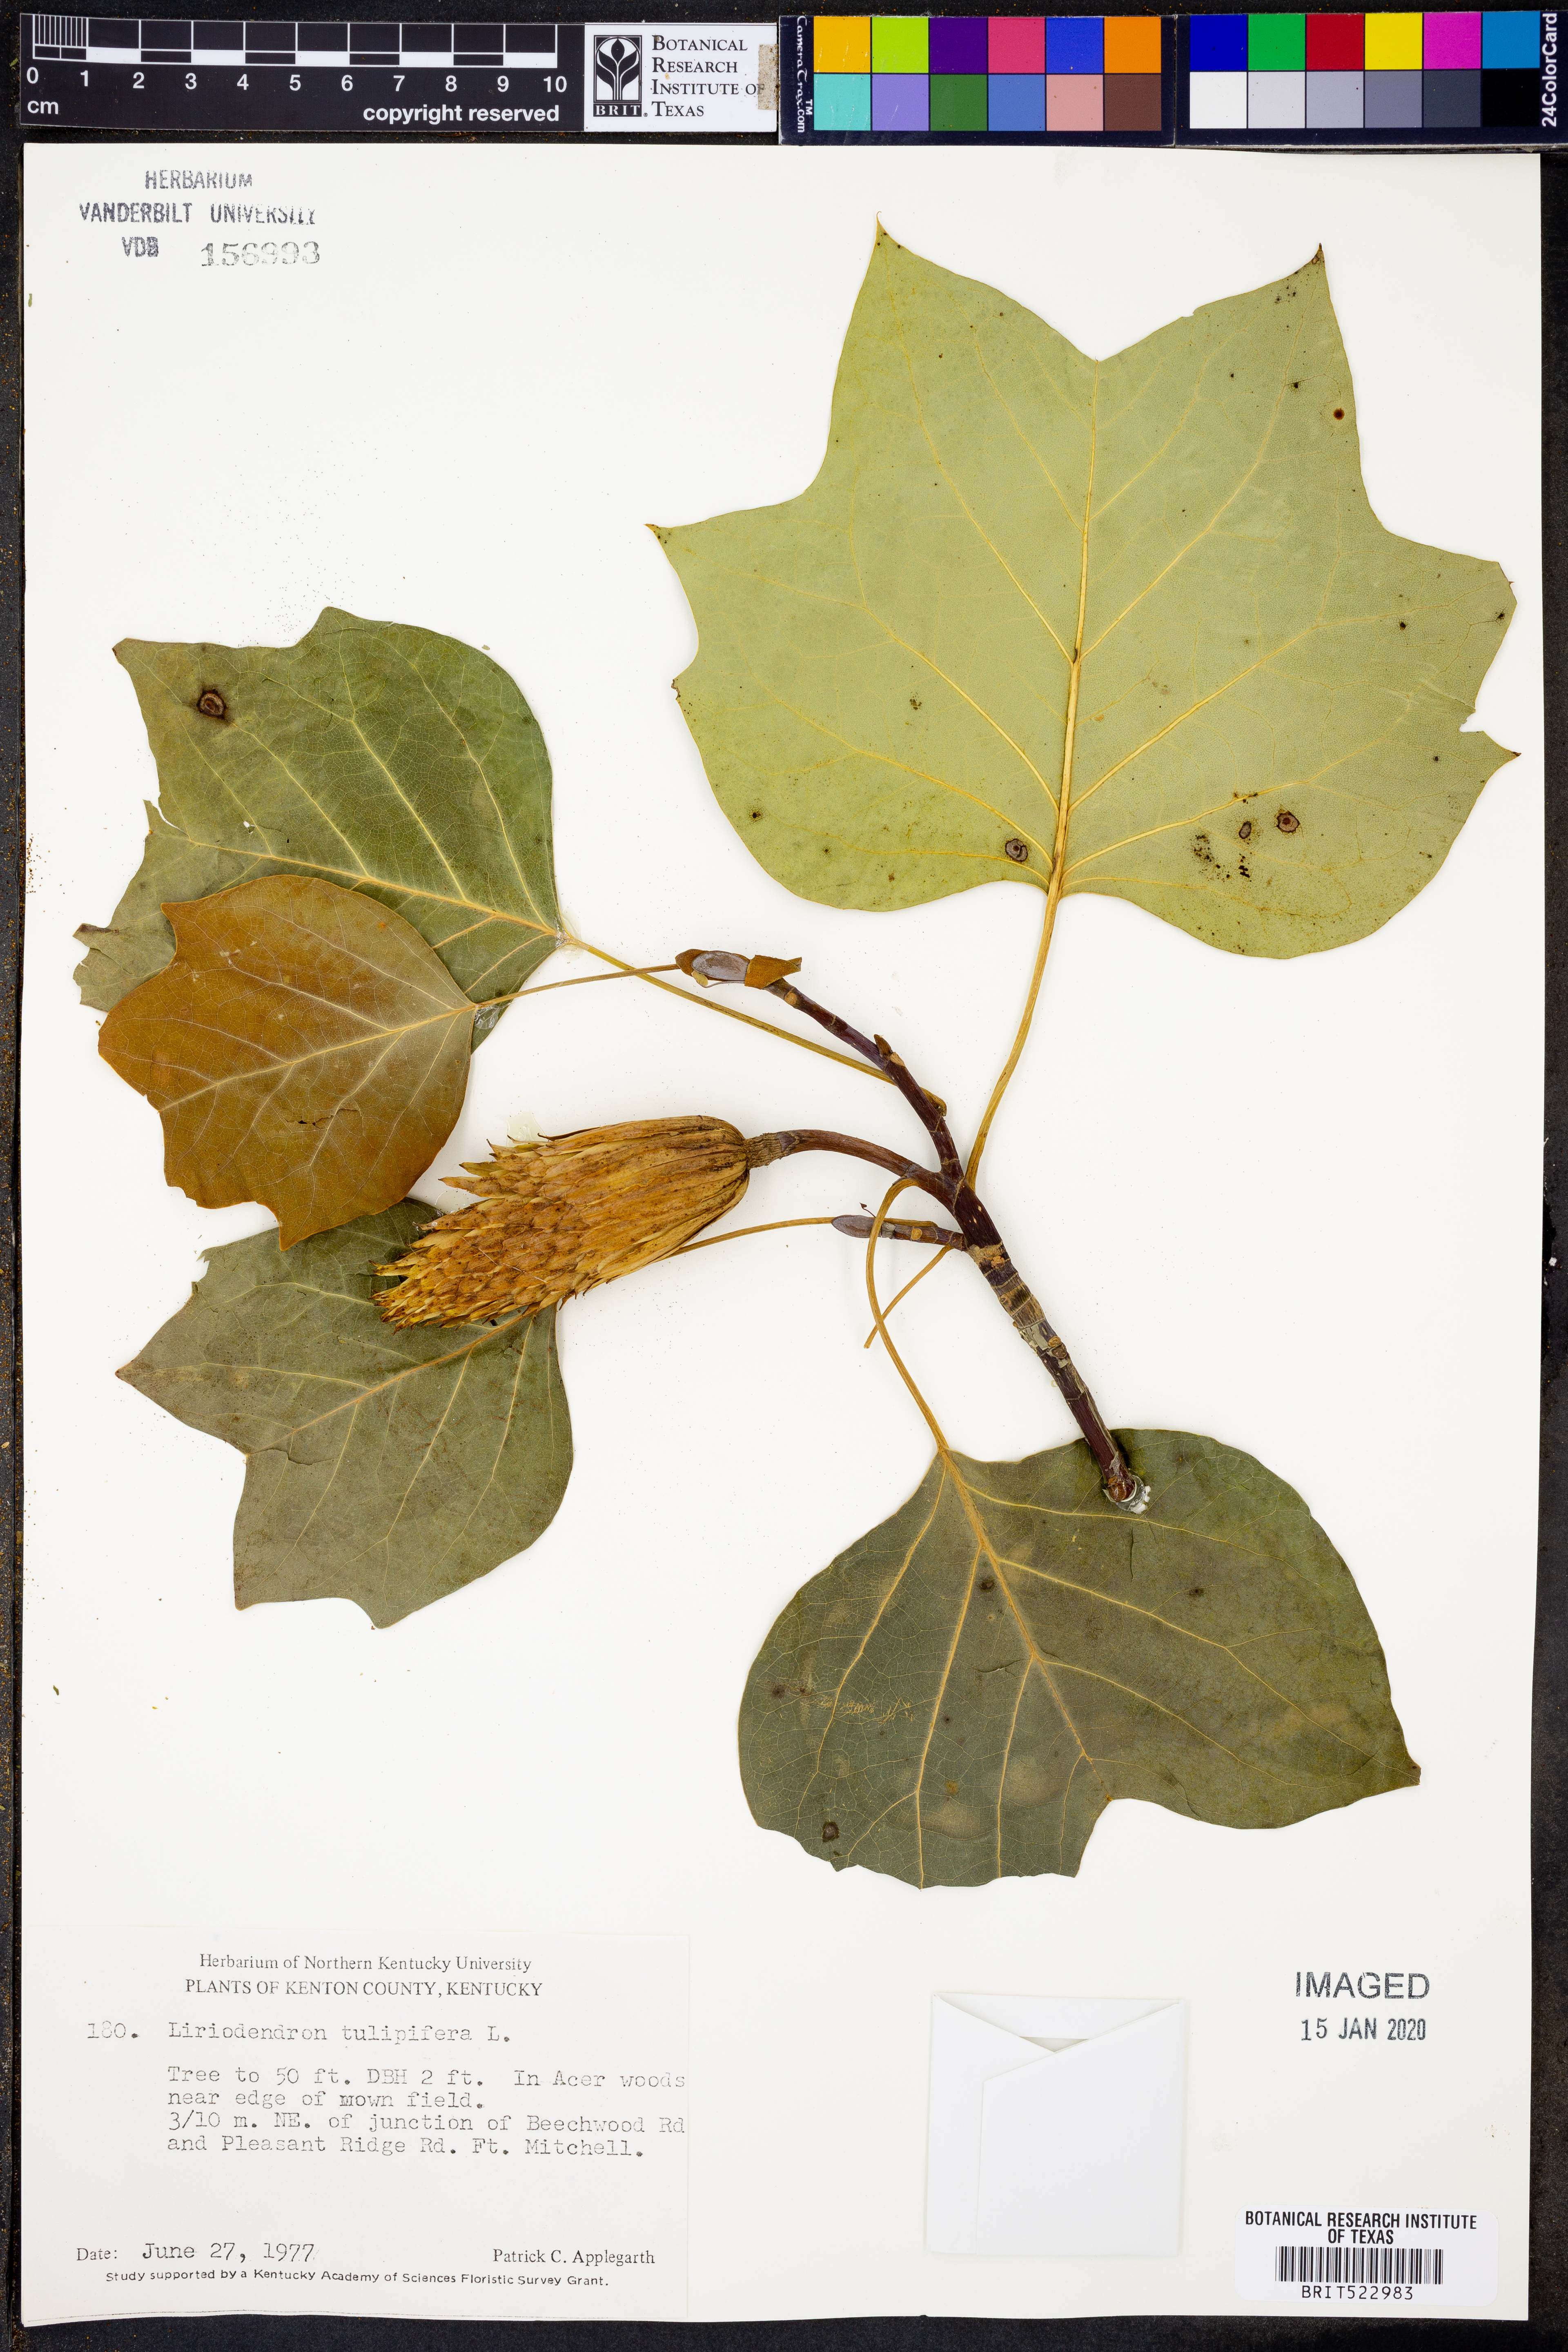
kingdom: Plantae
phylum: Tracheophyta
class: Magnoliopsida
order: Magnoliales
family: Magnoliaceae
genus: Liriodendron
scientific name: Liriodendron tulipifera
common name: Tulip tree
